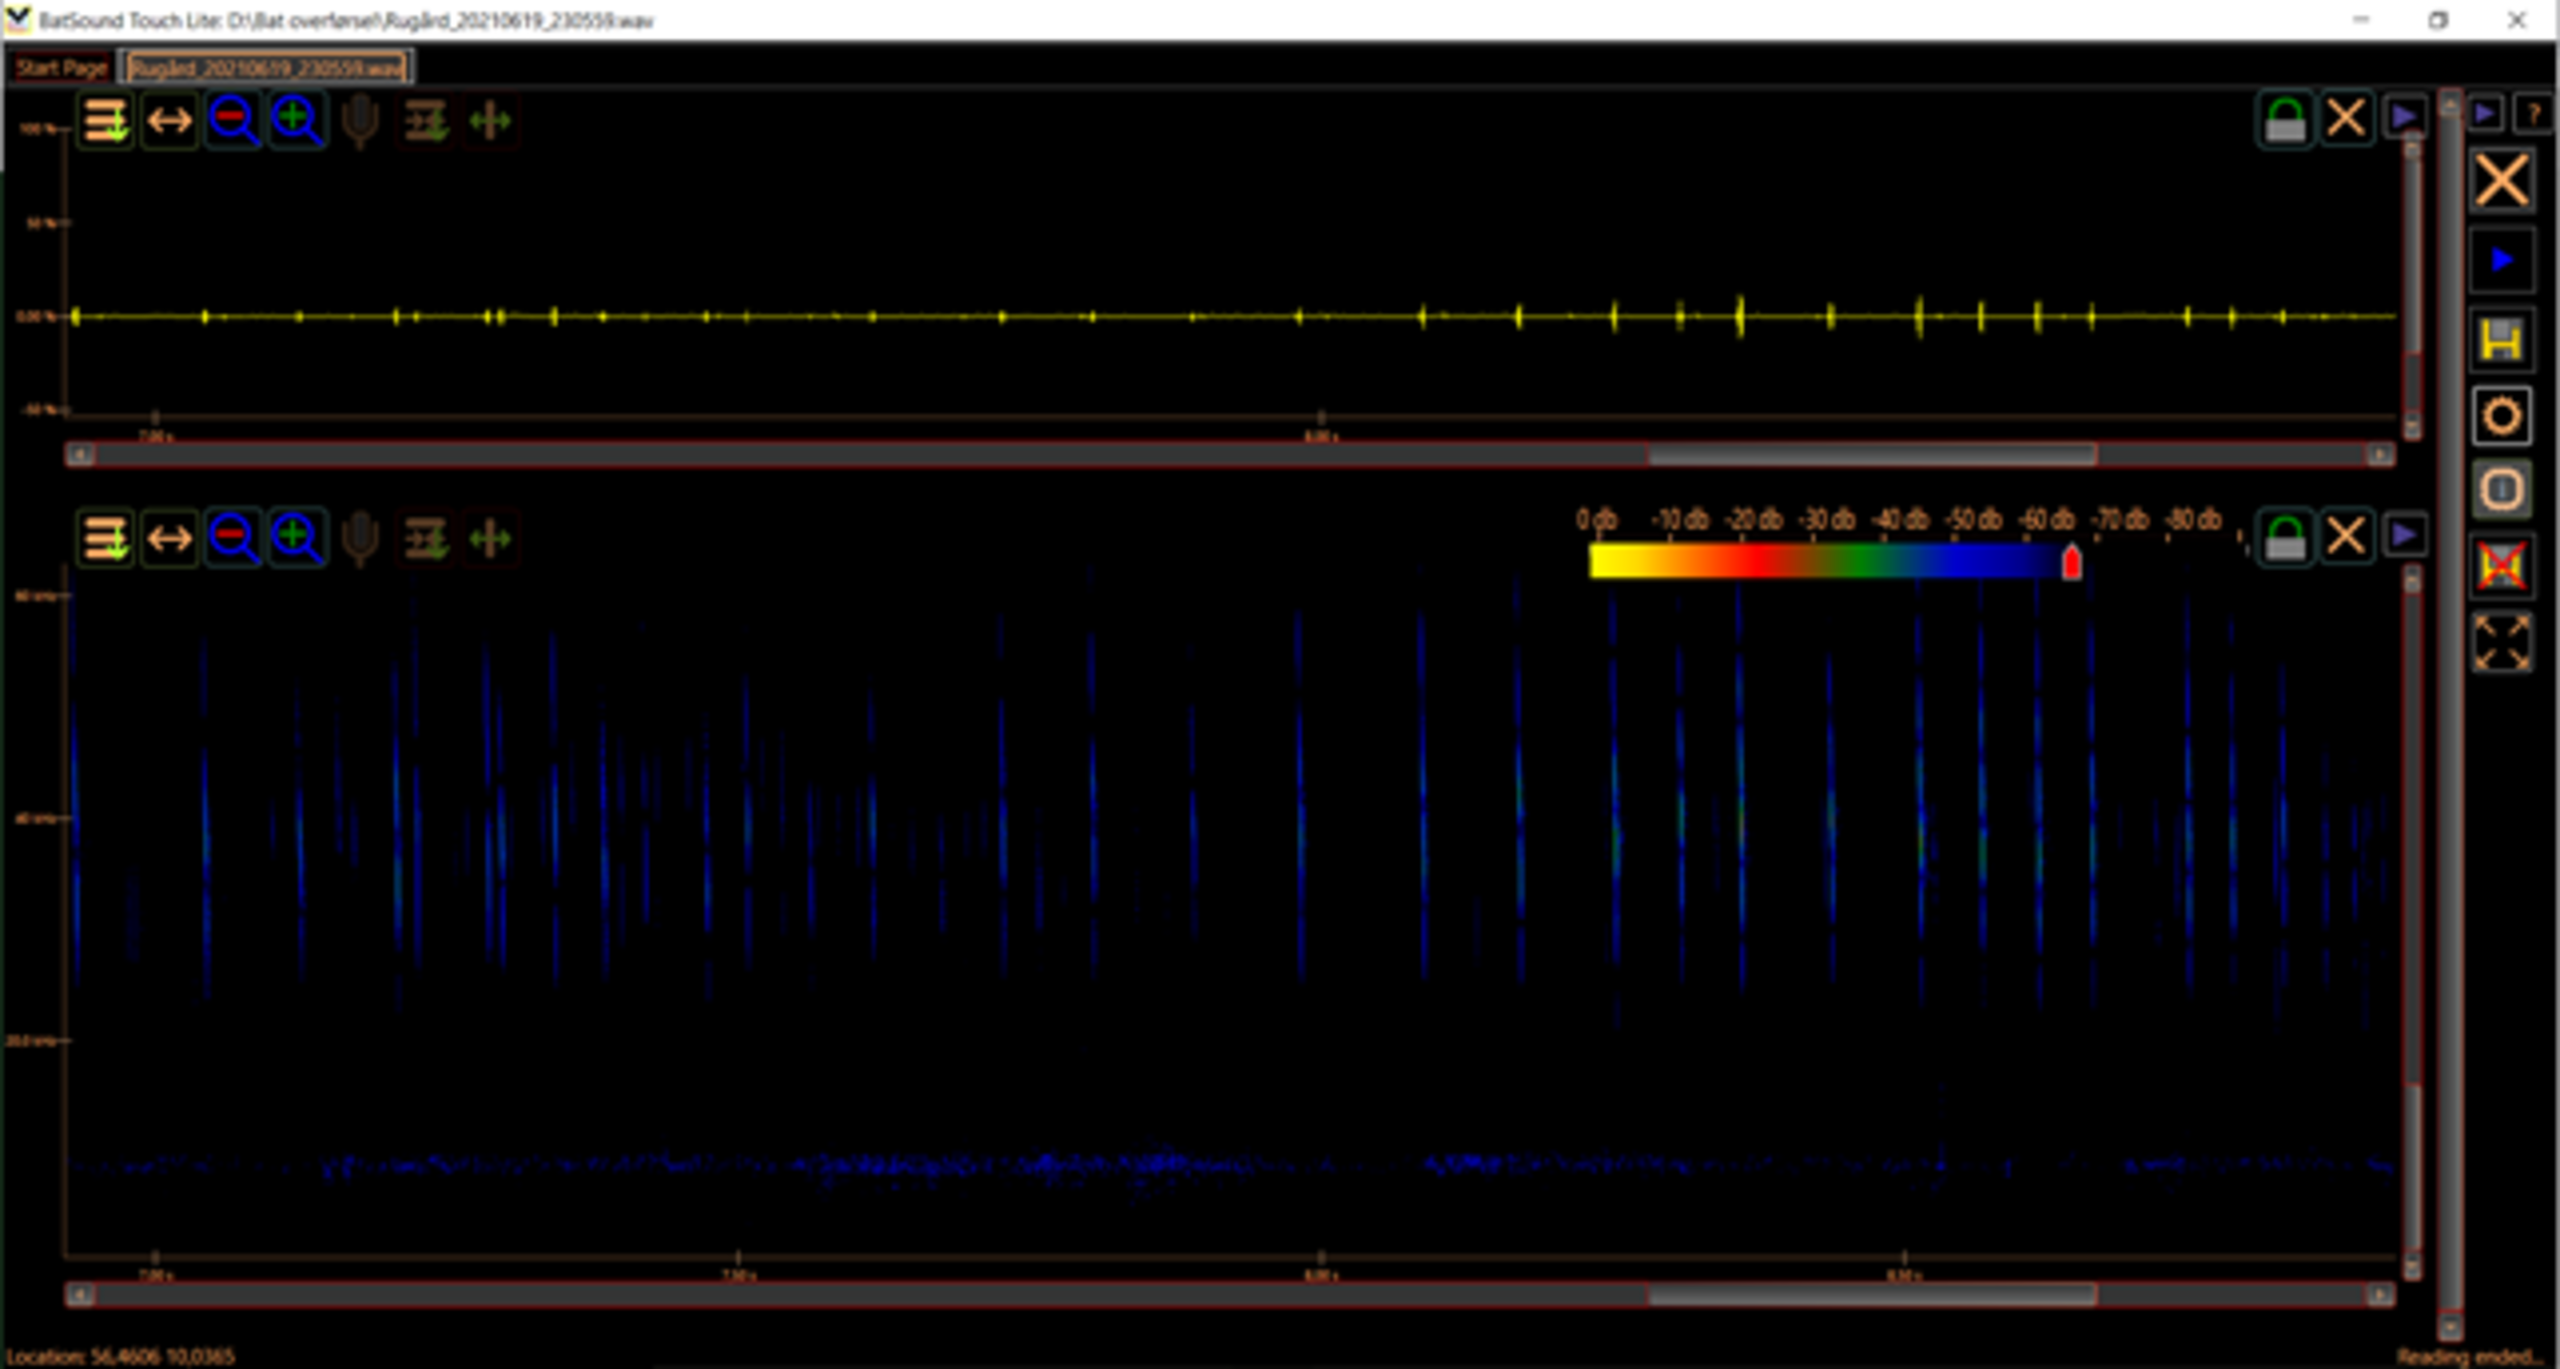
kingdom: Animalia
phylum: Chordata
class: Mammalia
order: Chiroptera
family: Vespertilionidae
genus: Myotis
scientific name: Myotis daubentonii
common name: Vandflagermus
